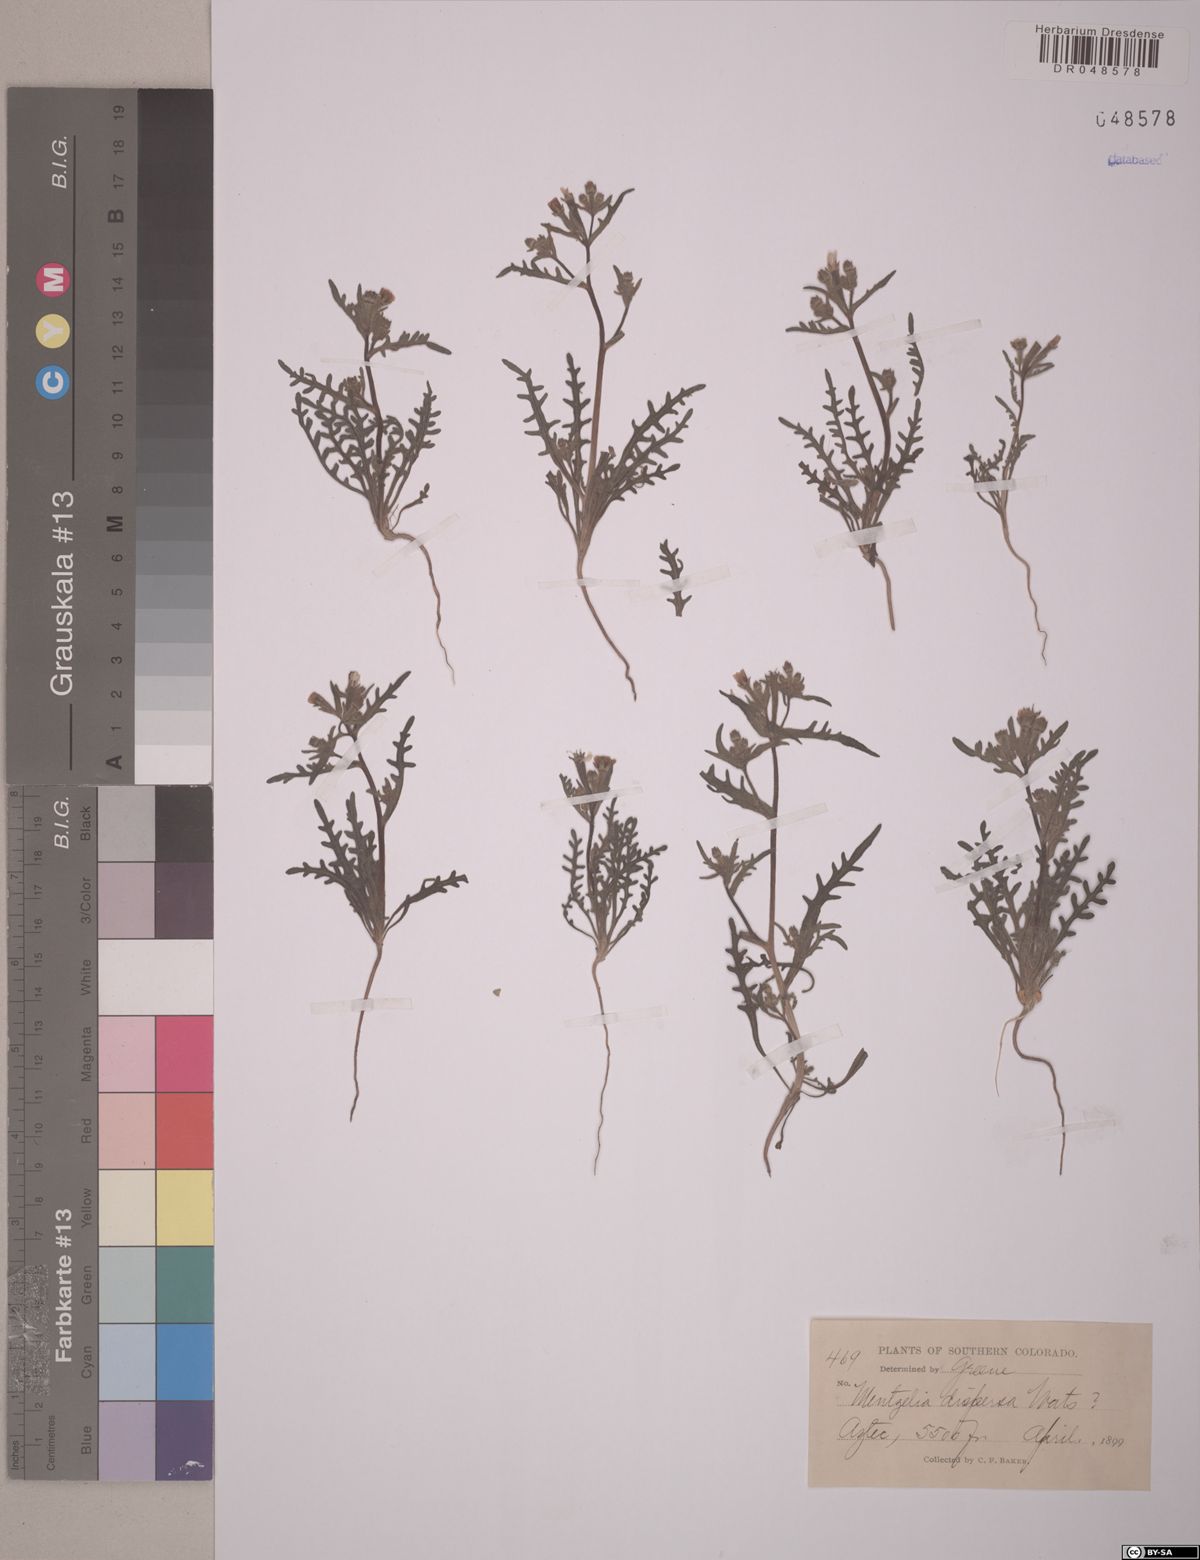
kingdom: Plantae
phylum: Tracheophyta
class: Magnoliopsida
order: Cornales
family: Loasaceae
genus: Mentzelia
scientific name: Mentzelia dispersa
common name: Nada stickleaf
